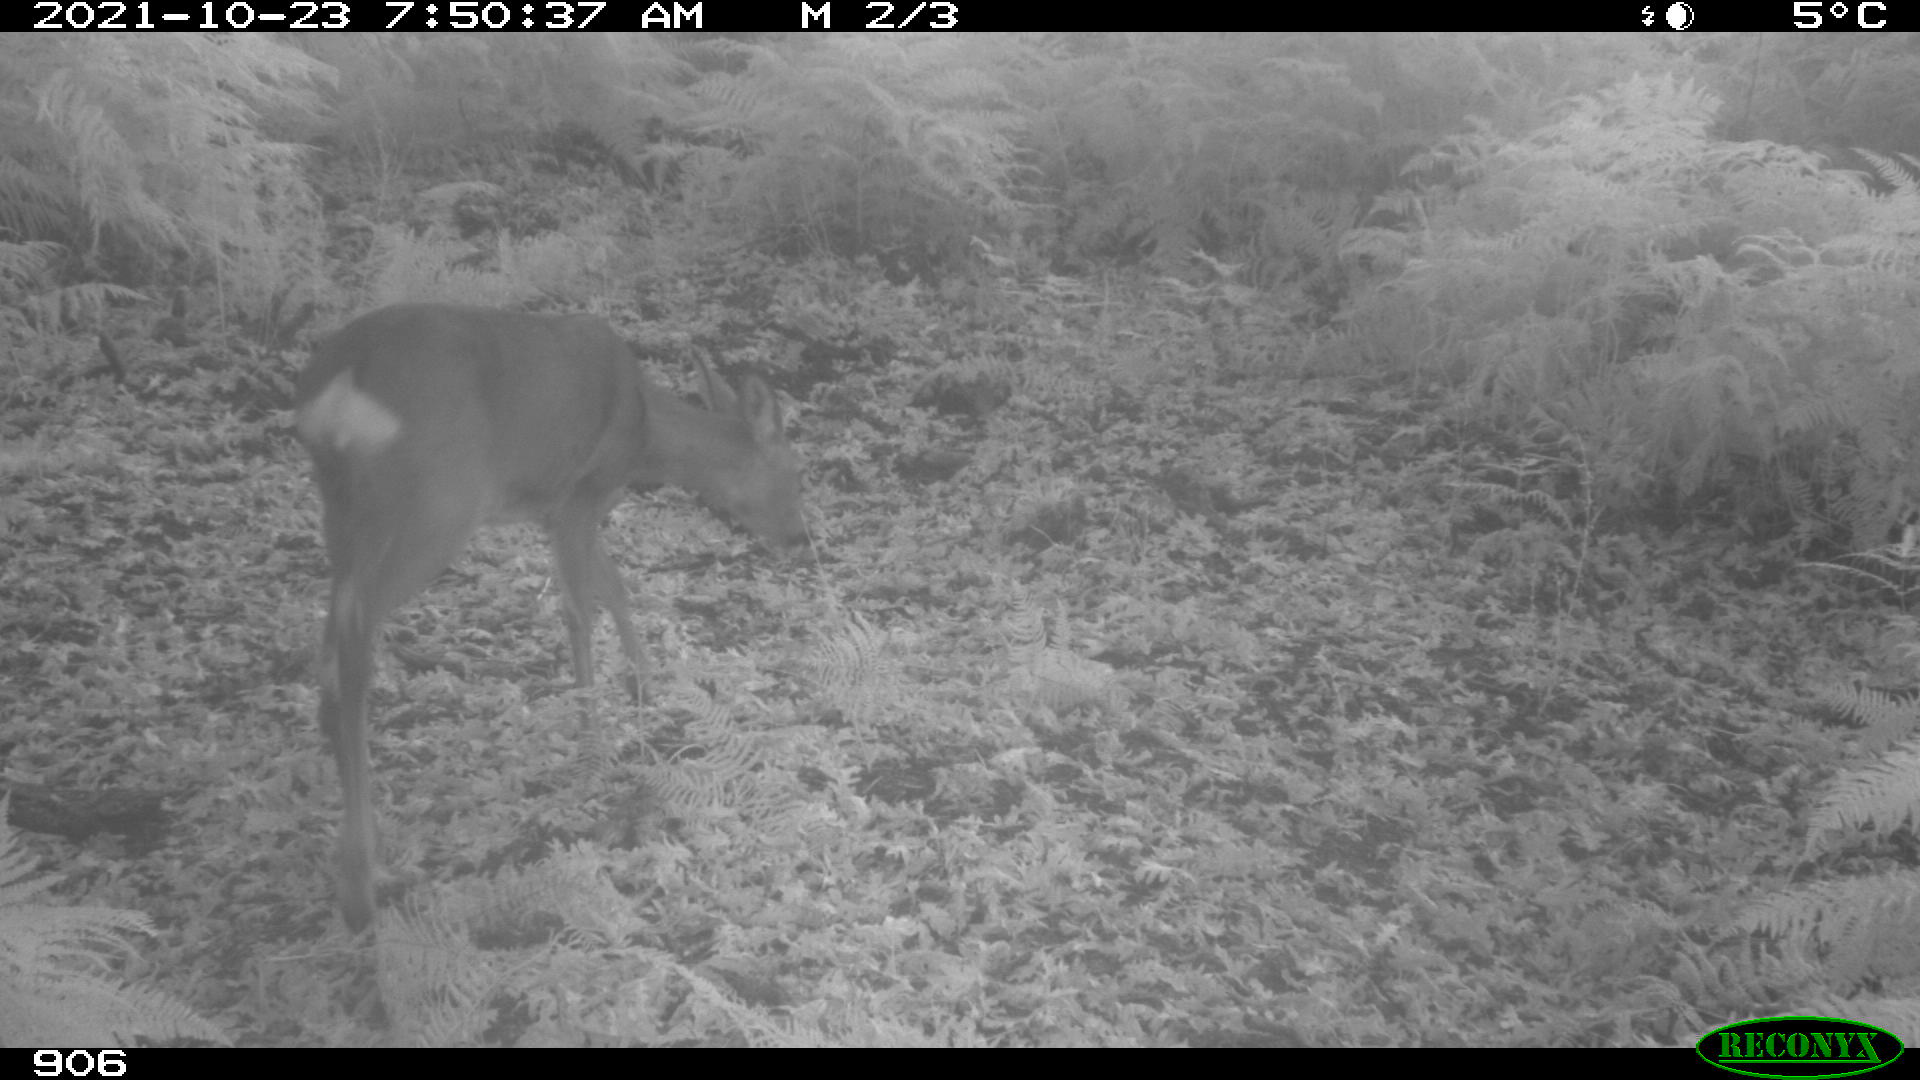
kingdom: Animalia
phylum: Chordata
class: Mammalia
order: Artiodactyla
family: Cervidae
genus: Capreolus
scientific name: Capreolus capreolus
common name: Western roe deer
